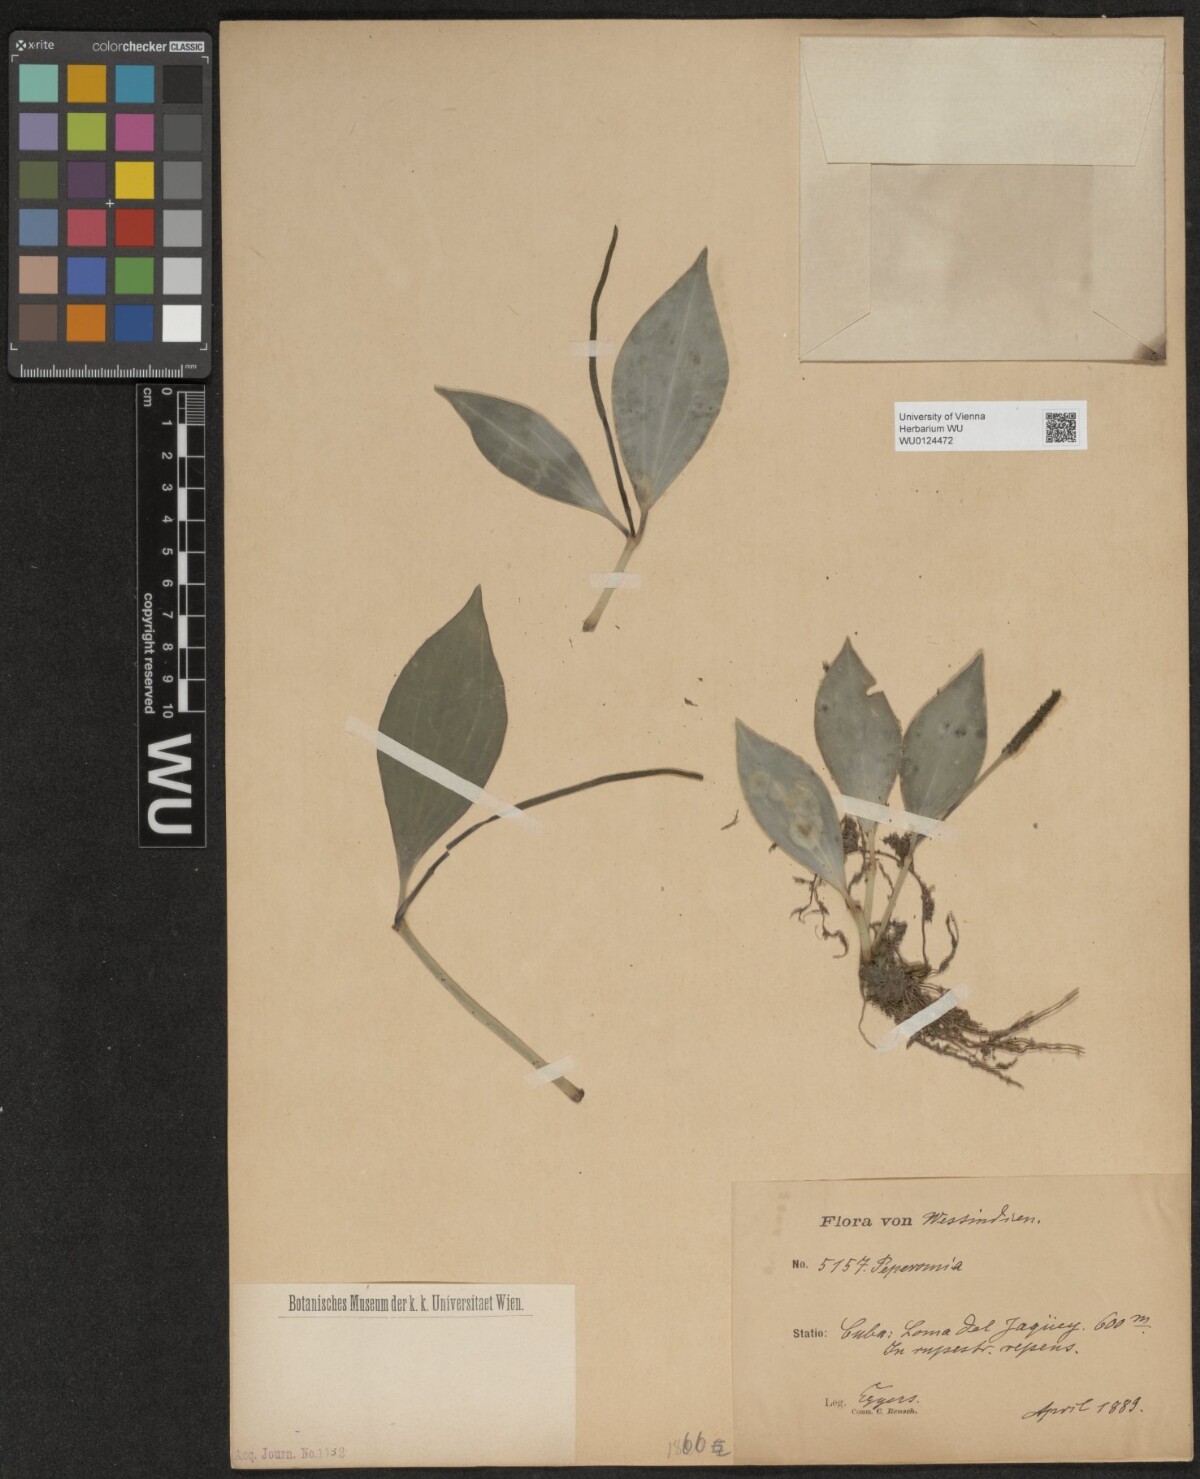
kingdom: Plantae
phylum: Tracheophyta
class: Magnoliopsida
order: Piperales
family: Piperaceae
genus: Peperomia
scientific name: Peperomia
